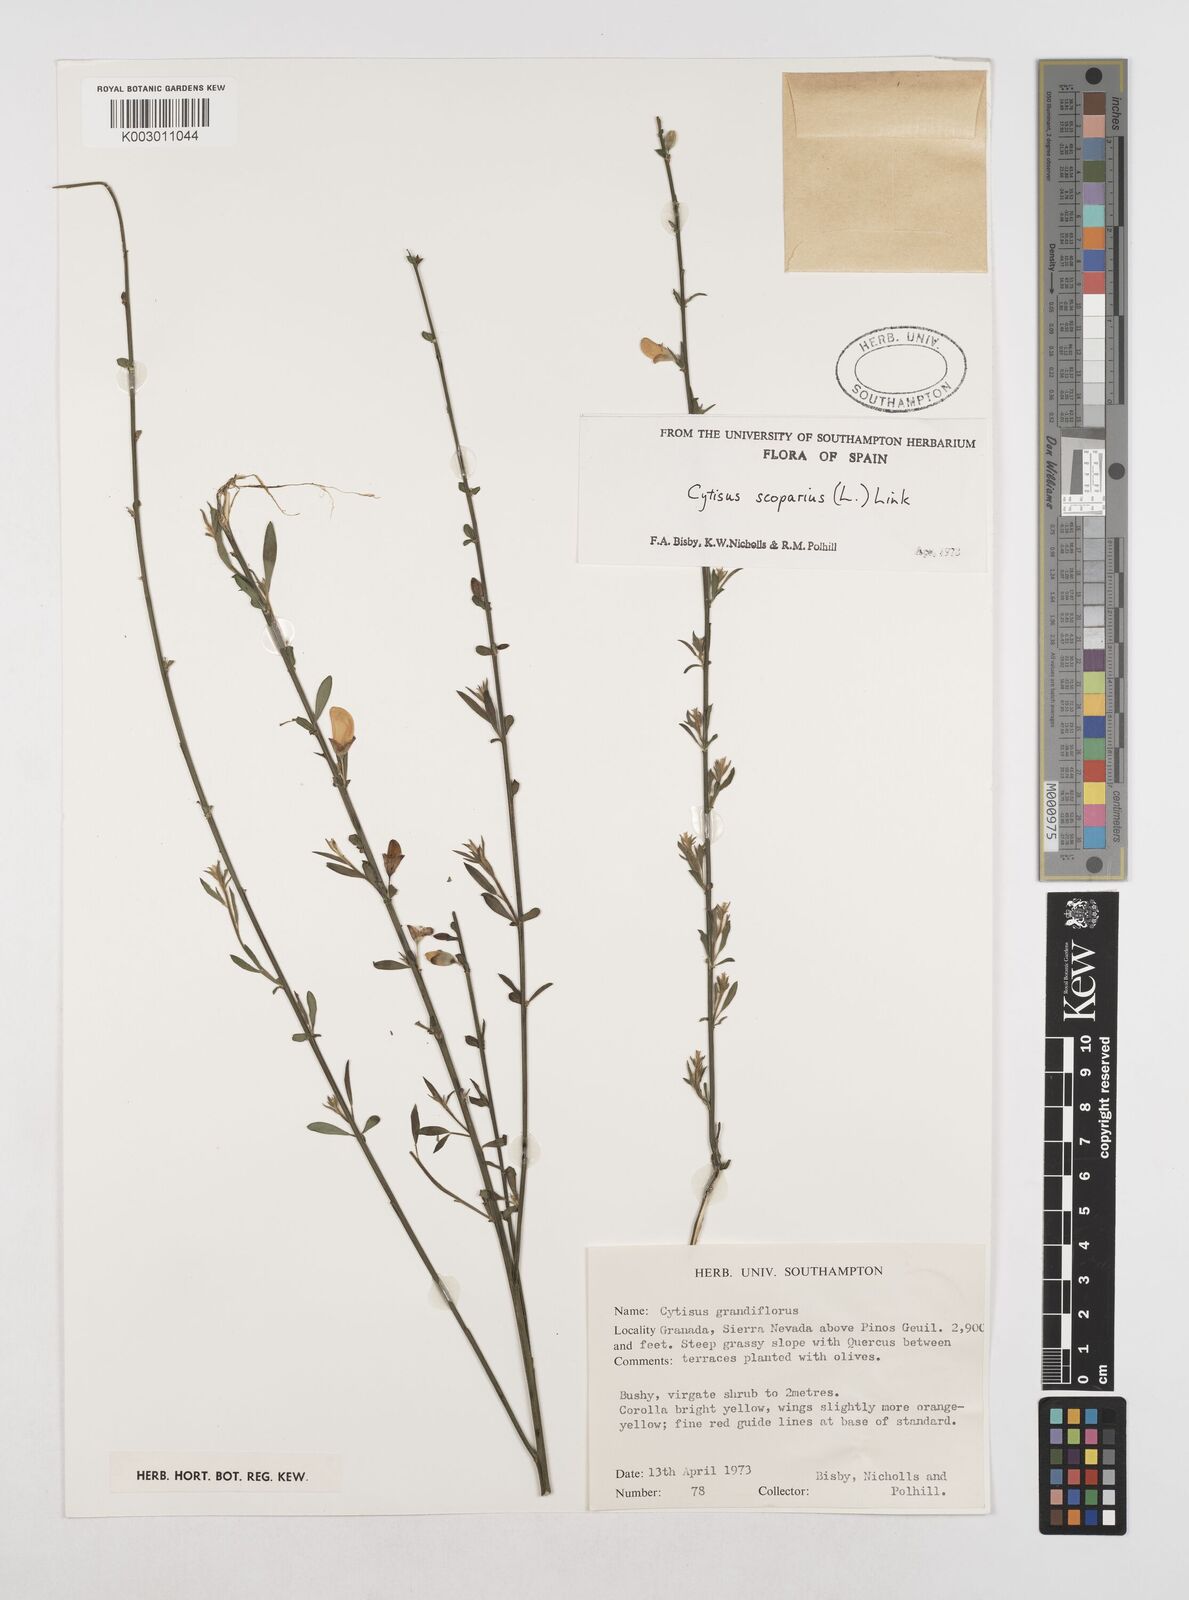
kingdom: Plantae
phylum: Tracheophyta
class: Magnoliopsida
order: Fabales
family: Fabaceae
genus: Cytisus
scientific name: Cytisus scoparius
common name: Scotch broom
